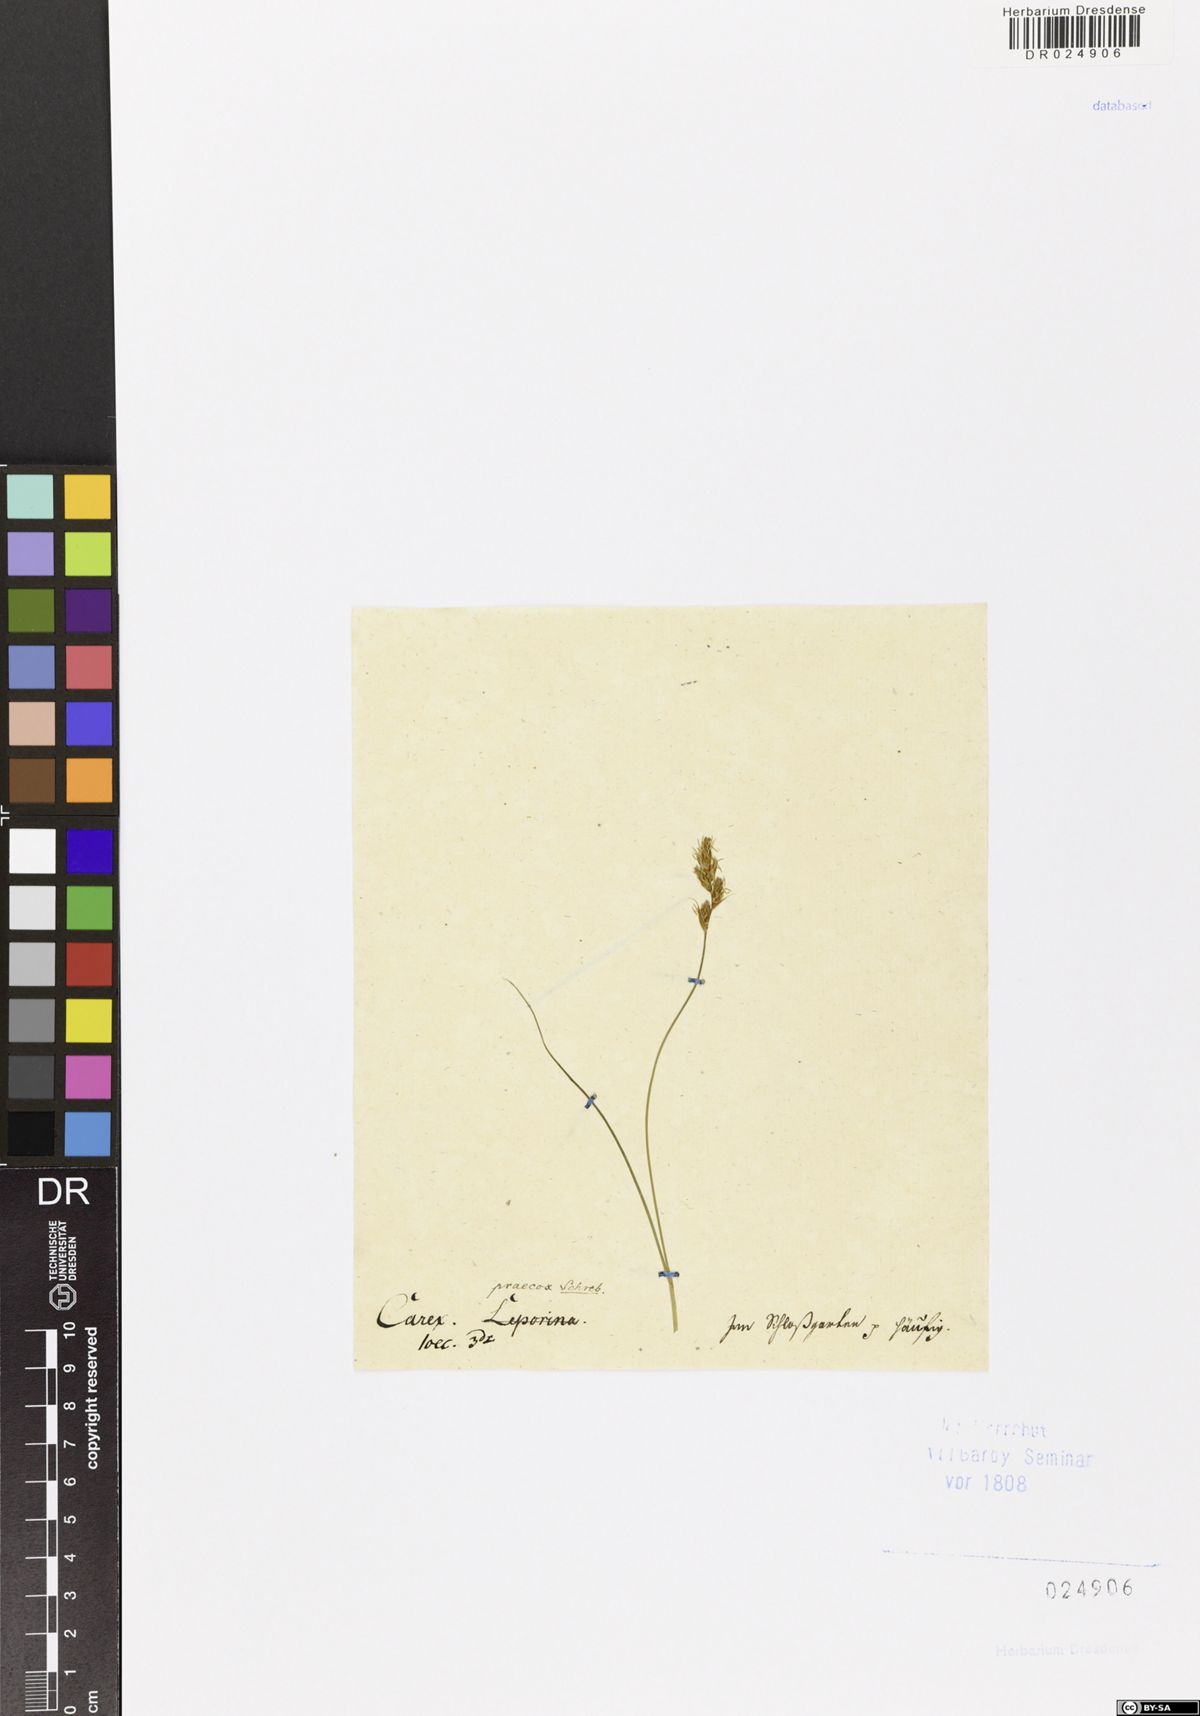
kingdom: Plantae
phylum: Tracheophyta
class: Liliopsida
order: Poales
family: Cyperaceae
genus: Carex
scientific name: Carex praecox
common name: Early sedge
